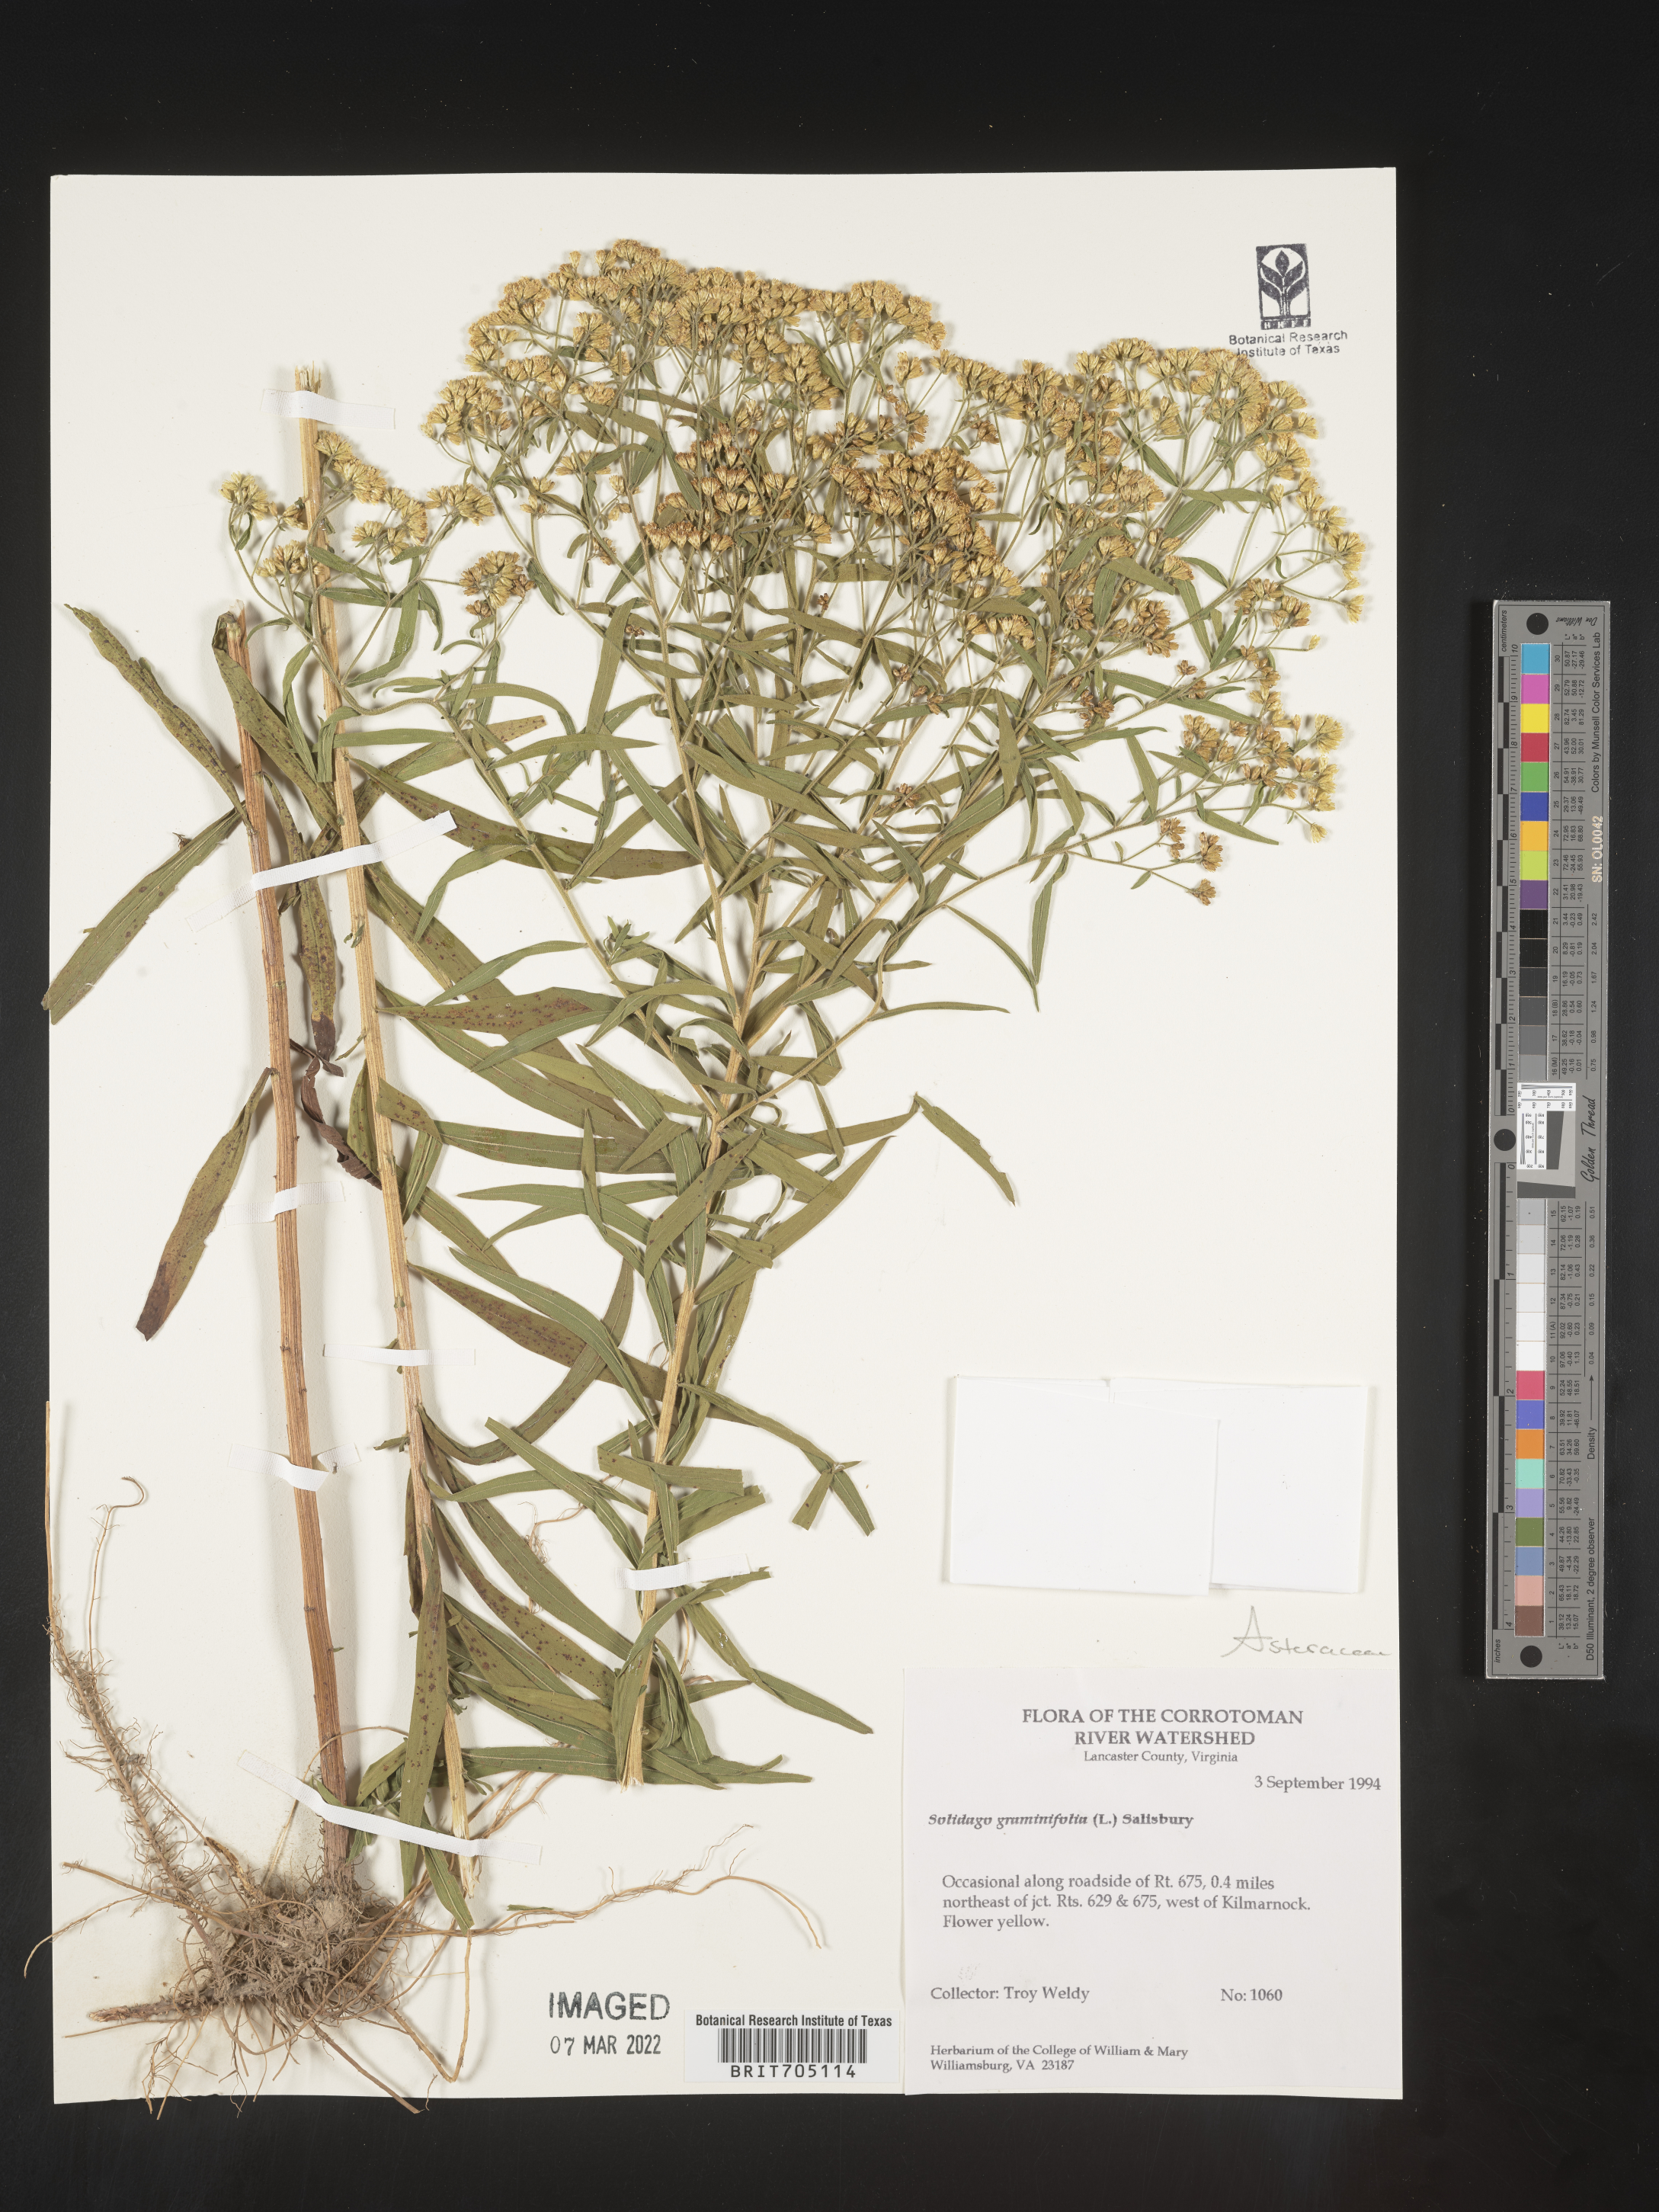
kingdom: Plantae
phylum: Tracheophyta
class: Magnoliopsida
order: Asterales
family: Asteraceae
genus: Euthamia
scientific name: Euthamia graminifolia
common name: Common goldentop
